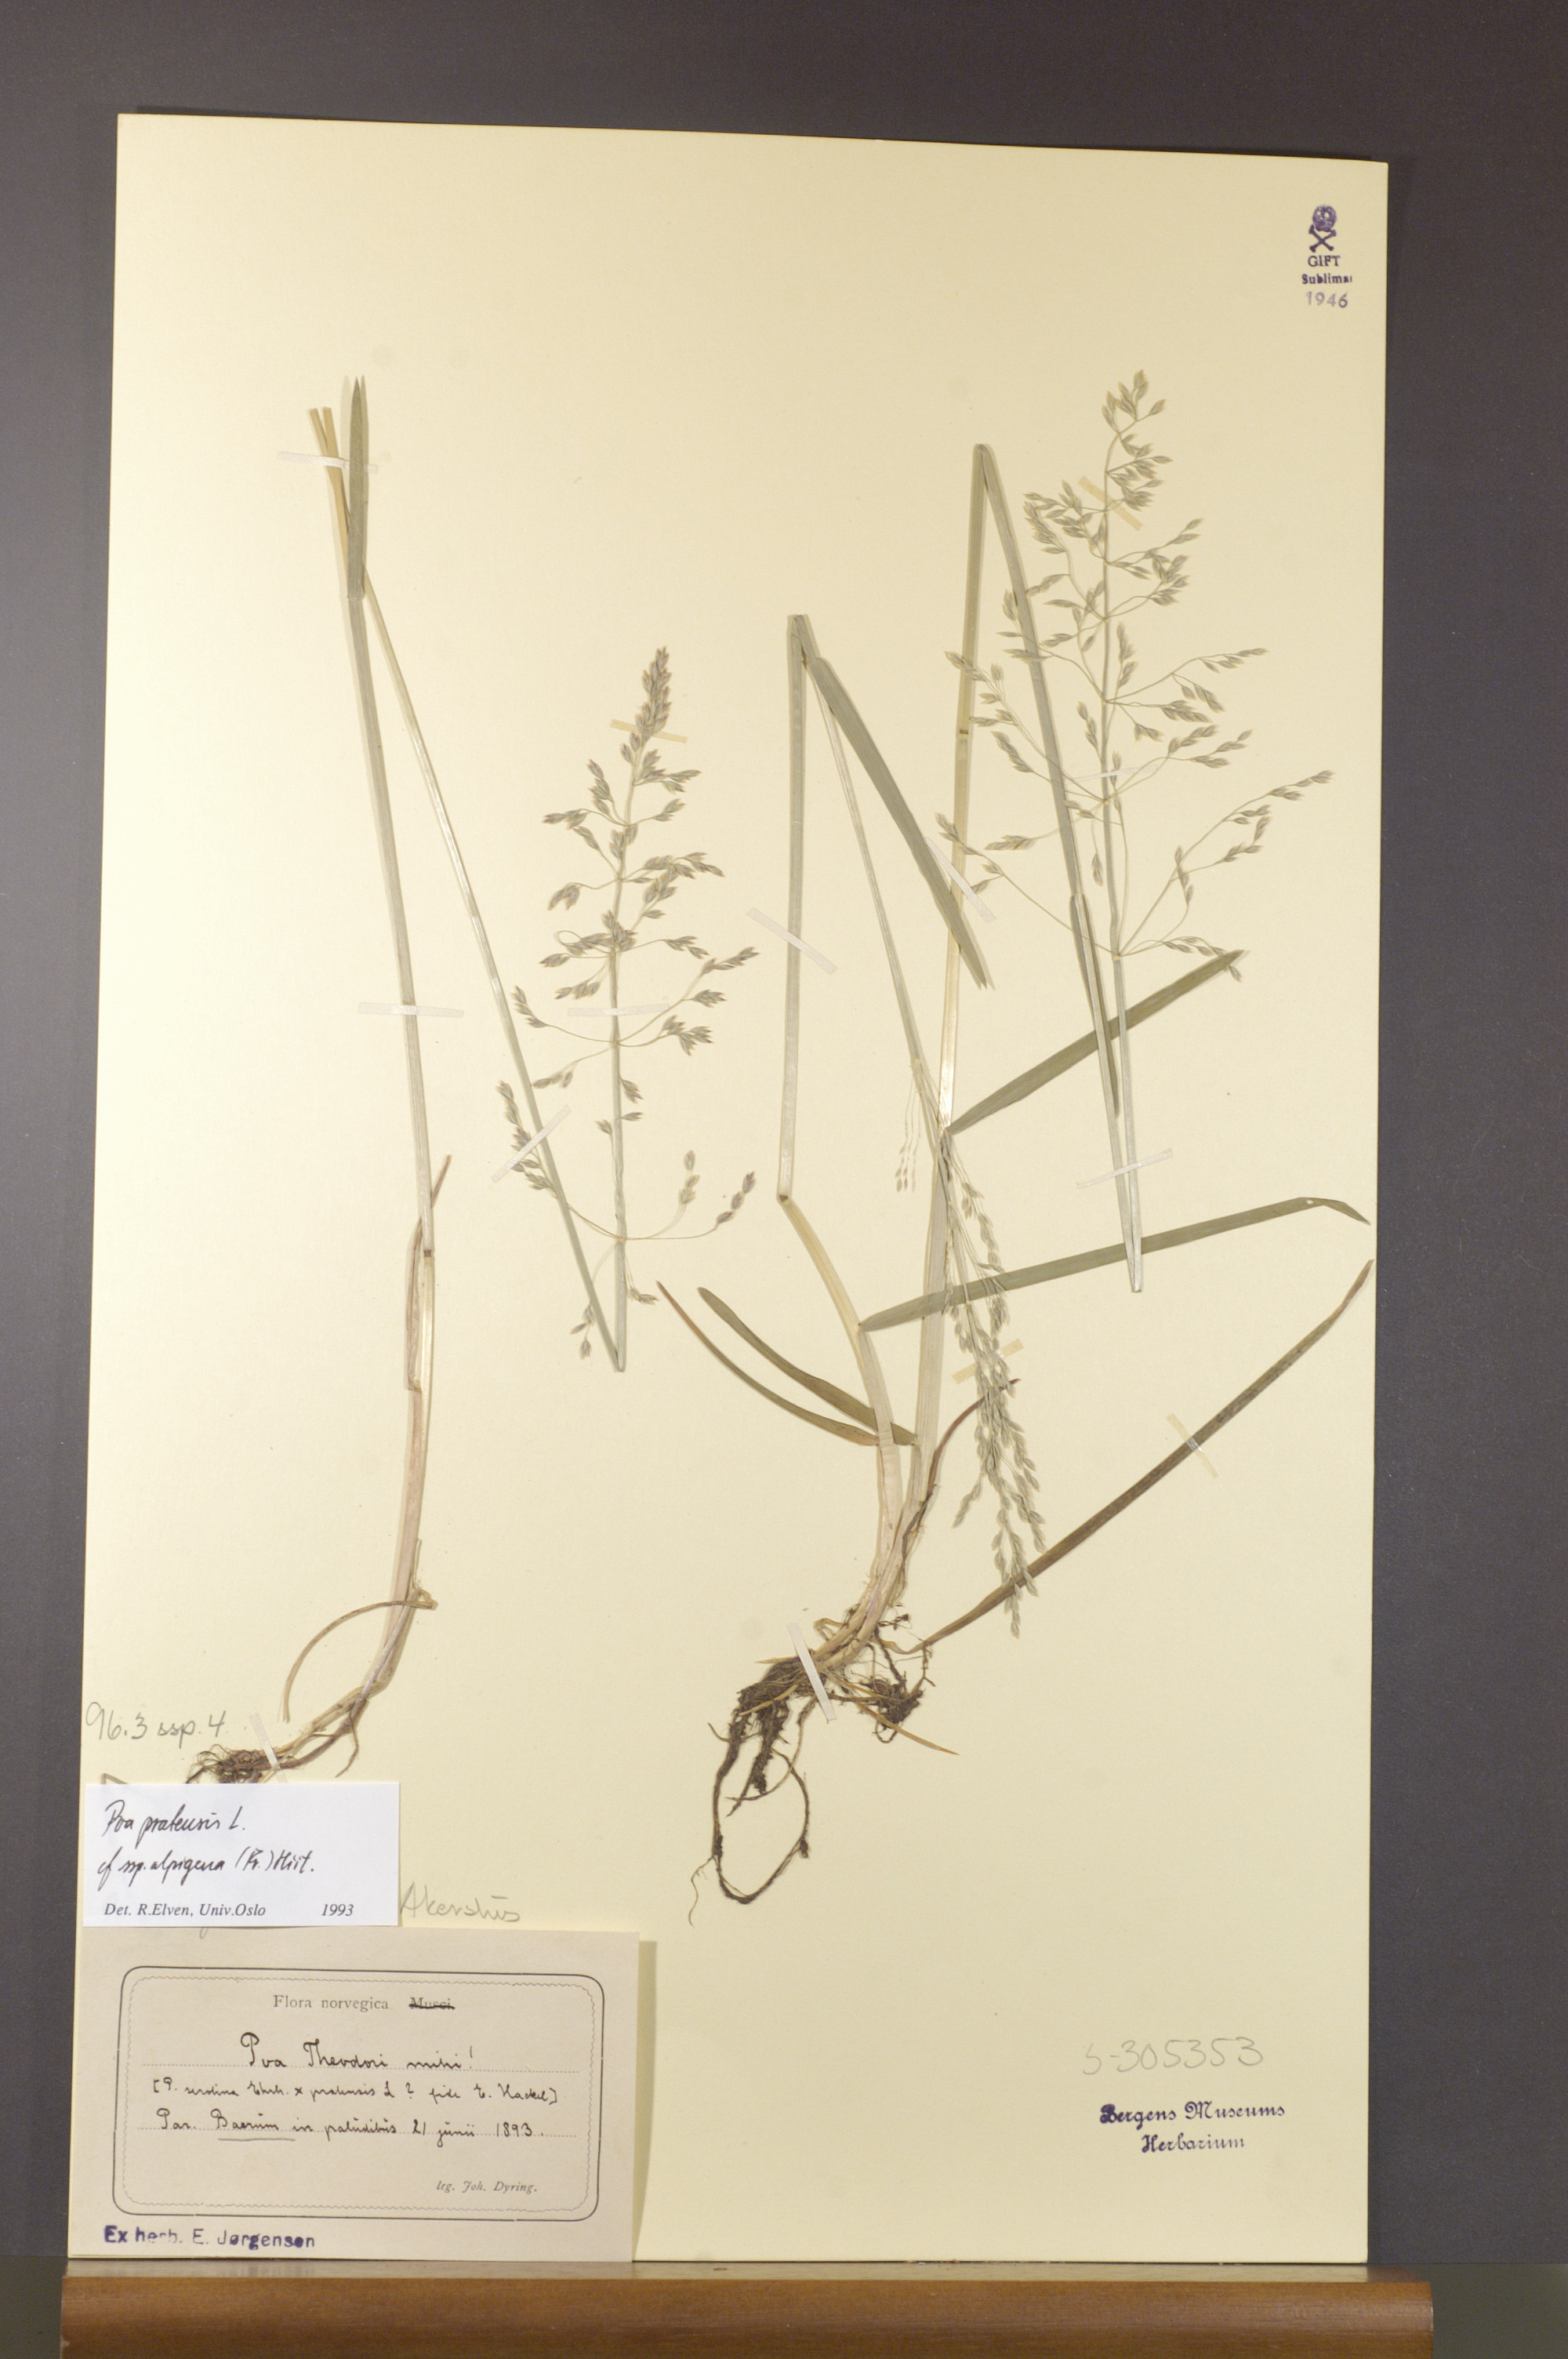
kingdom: Plantae
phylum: Tracheophyta
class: Liliopsida
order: Poales
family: Poaceae
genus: Poa
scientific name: Poa alpigena
